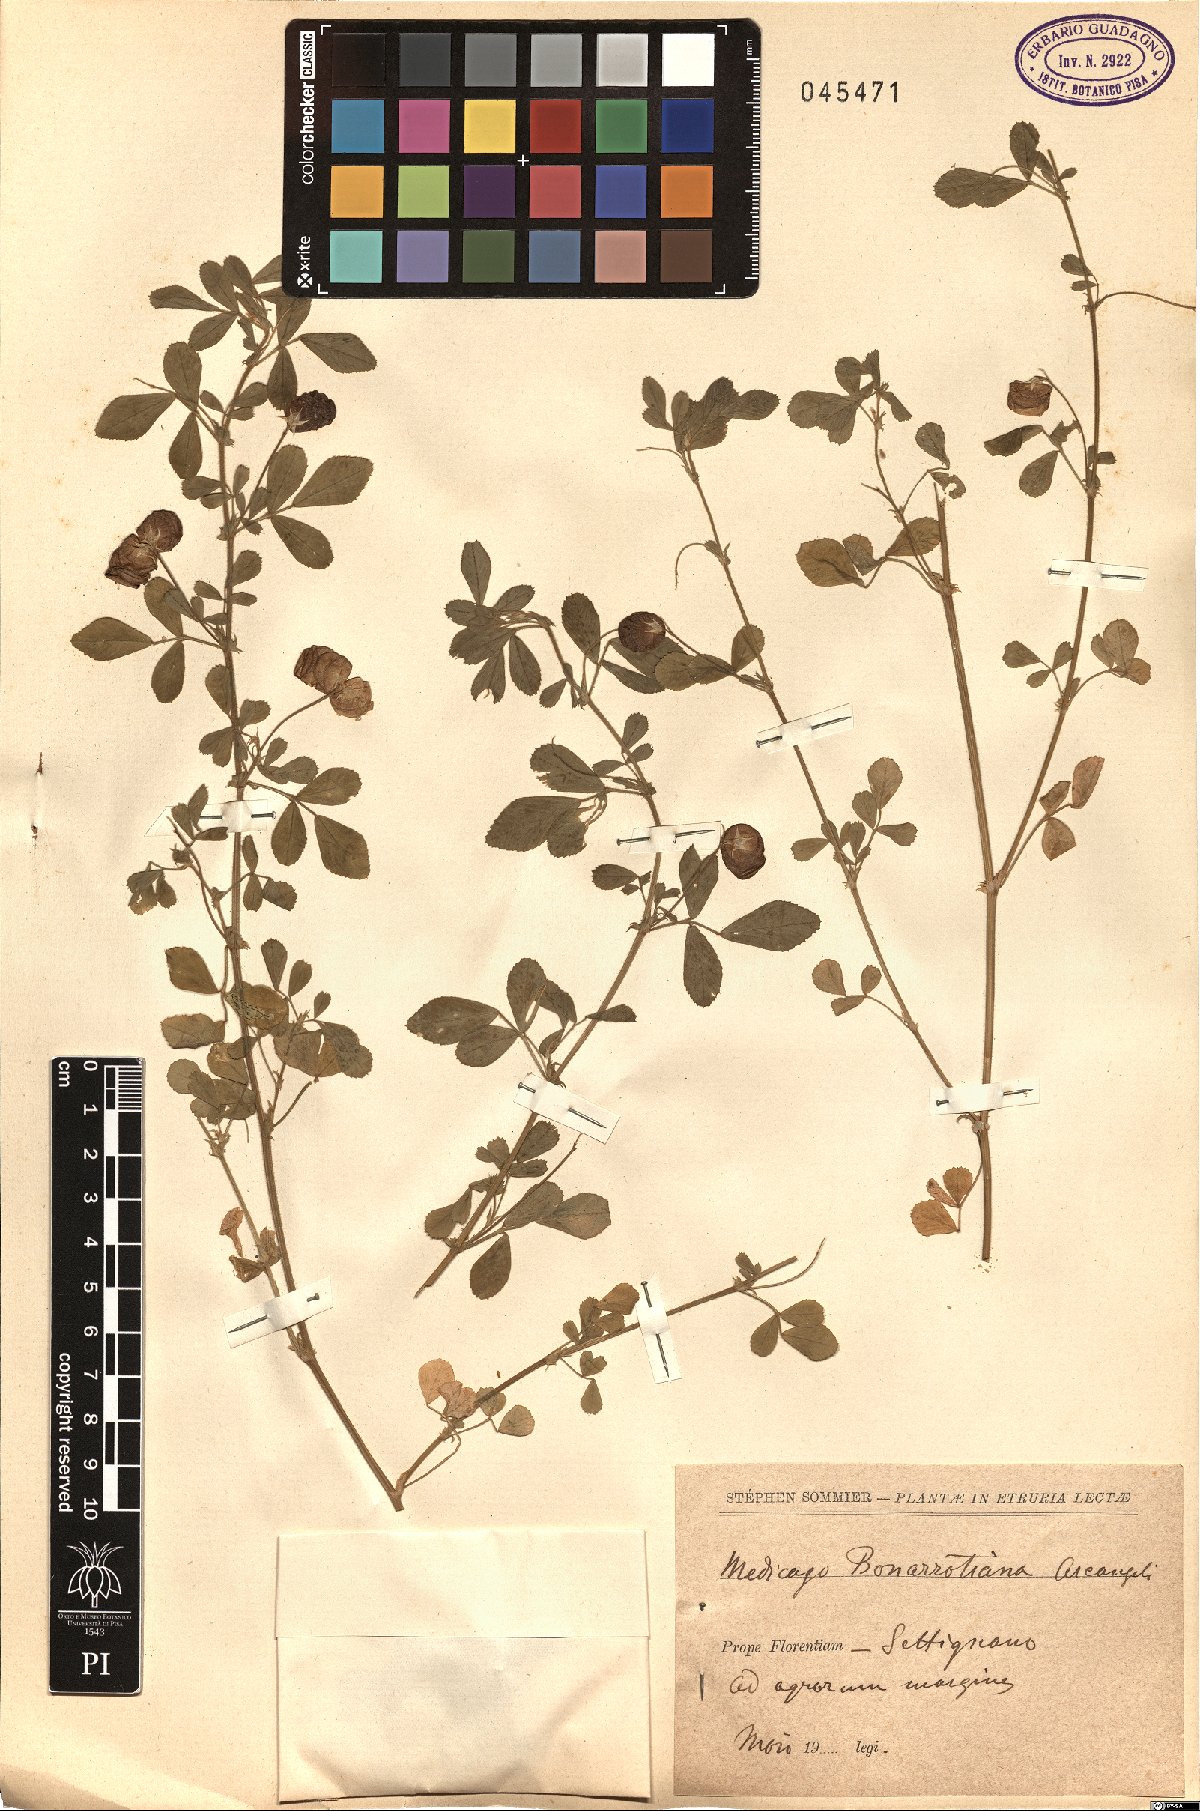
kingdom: Plantae
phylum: Tracheophyta
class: Magnoliopsida
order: Fabales
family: Fabaceae
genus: Medicago
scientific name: Medicago bonarotiana
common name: Wheel medic
